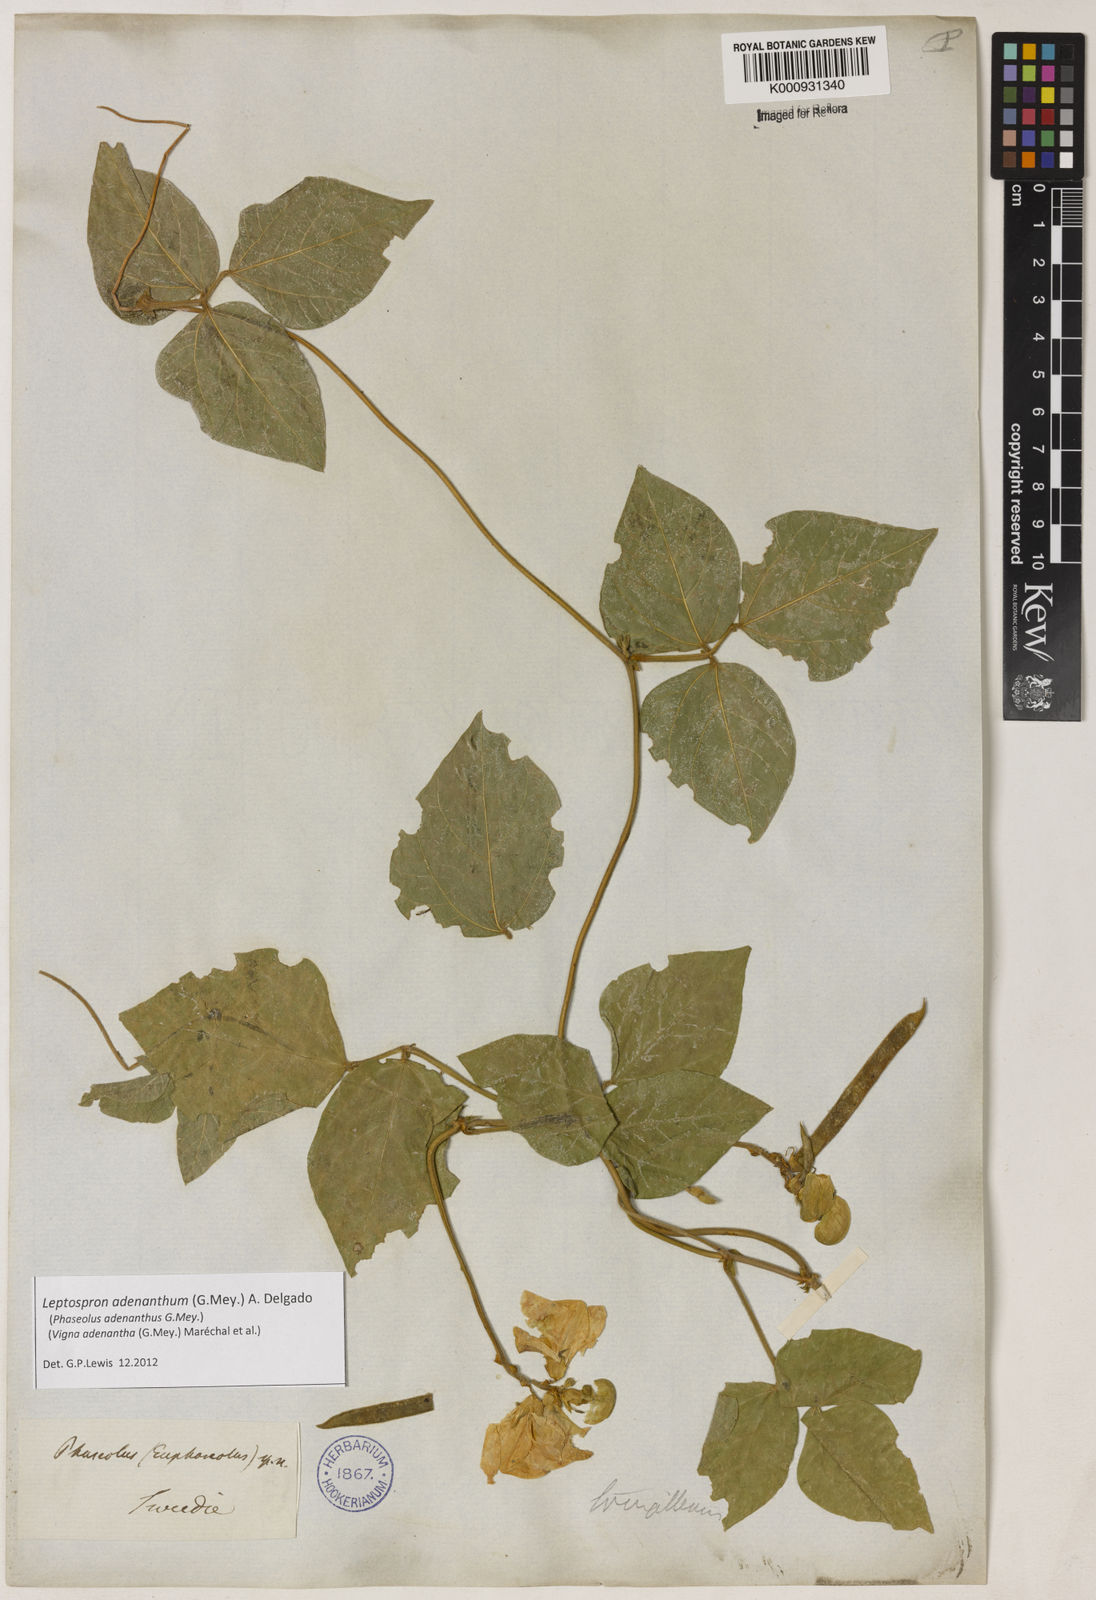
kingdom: Plantae
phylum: Tracheophyta
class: Magnoliopsida
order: Fabales
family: Fabaceae
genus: Leptospron
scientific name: Leptospron adenanthum
